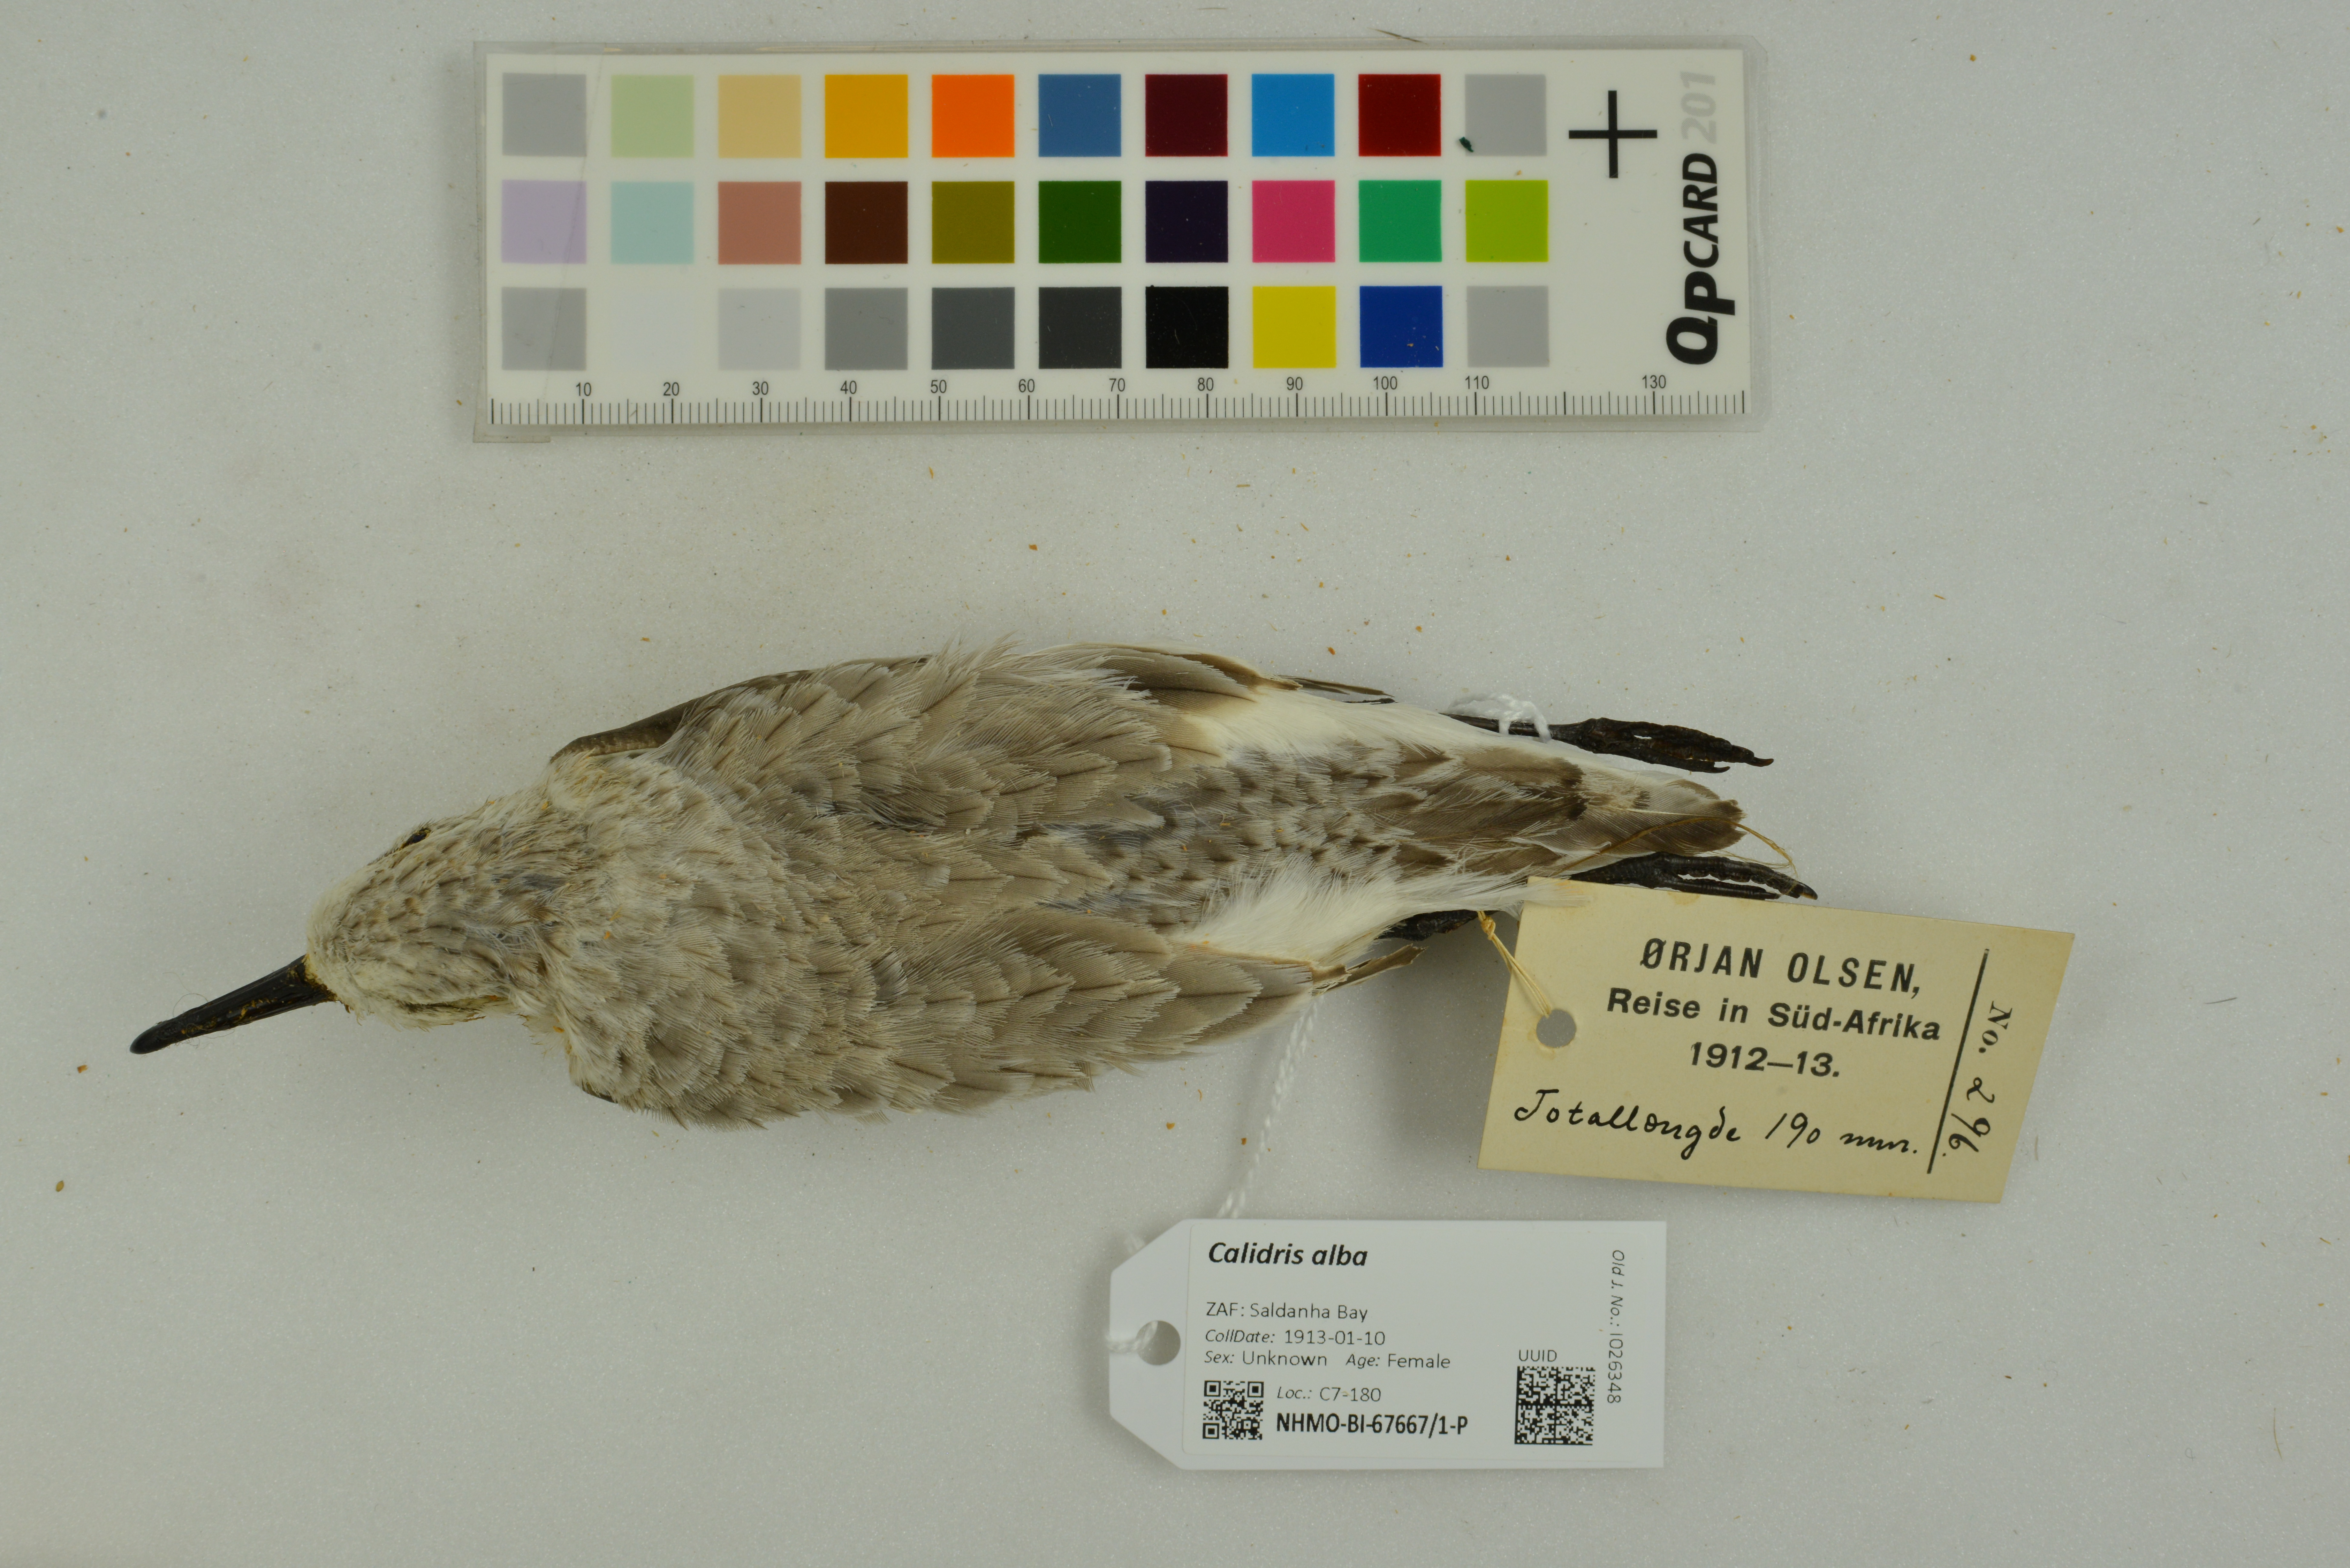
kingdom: Animalia
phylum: Chordata
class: Aves
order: Charadriiformes
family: Scolopacidae
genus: Calidris
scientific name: Calidris alba
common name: Sanderling
